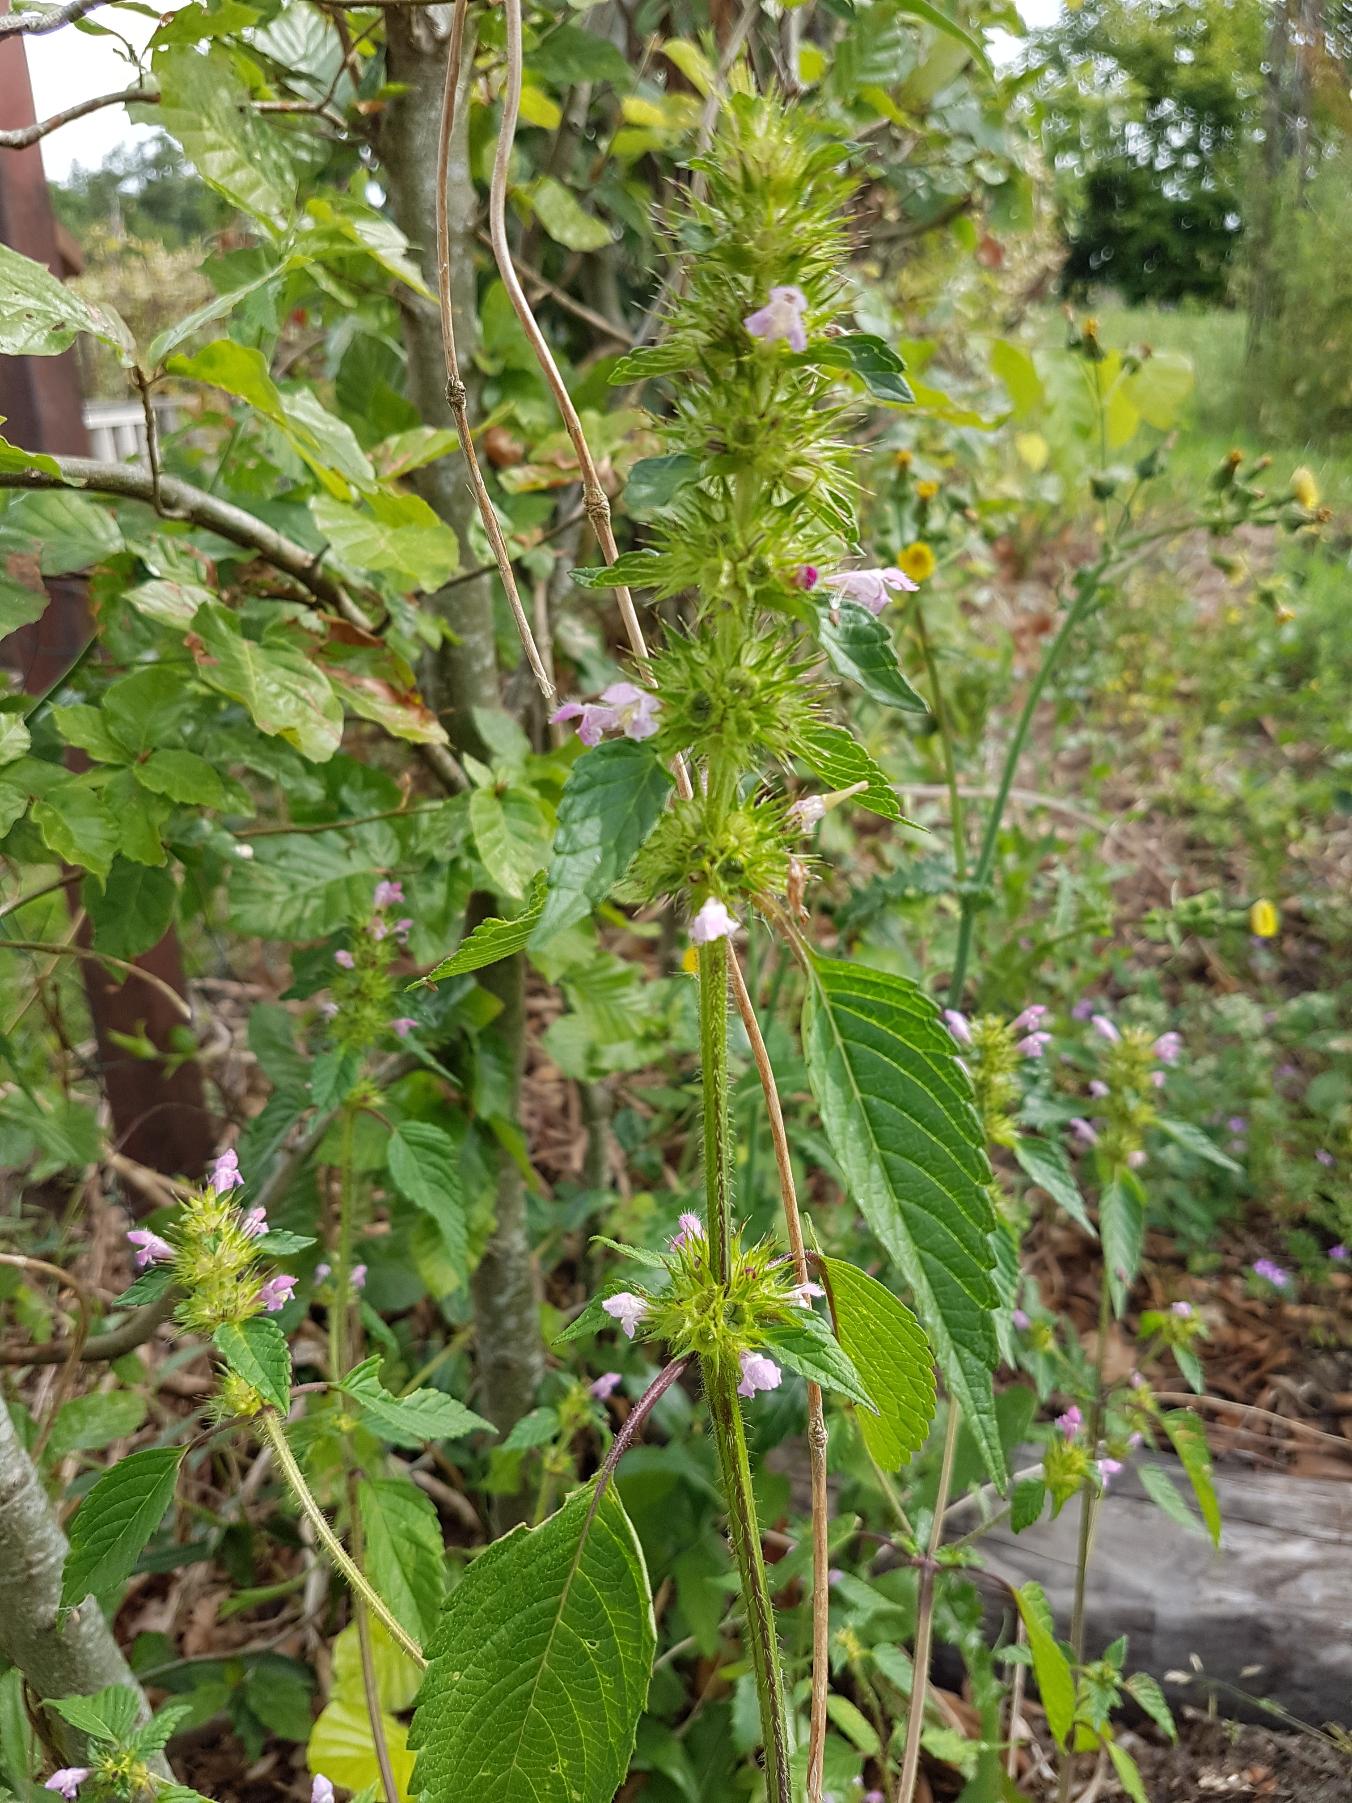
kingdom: Plantae
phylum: Tracheophyta
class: Magnoliopsida
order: Lamiales
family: Lamiaceae
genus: Galeopsis
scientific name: Galeopsis bifida
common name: Skov-hanekro
